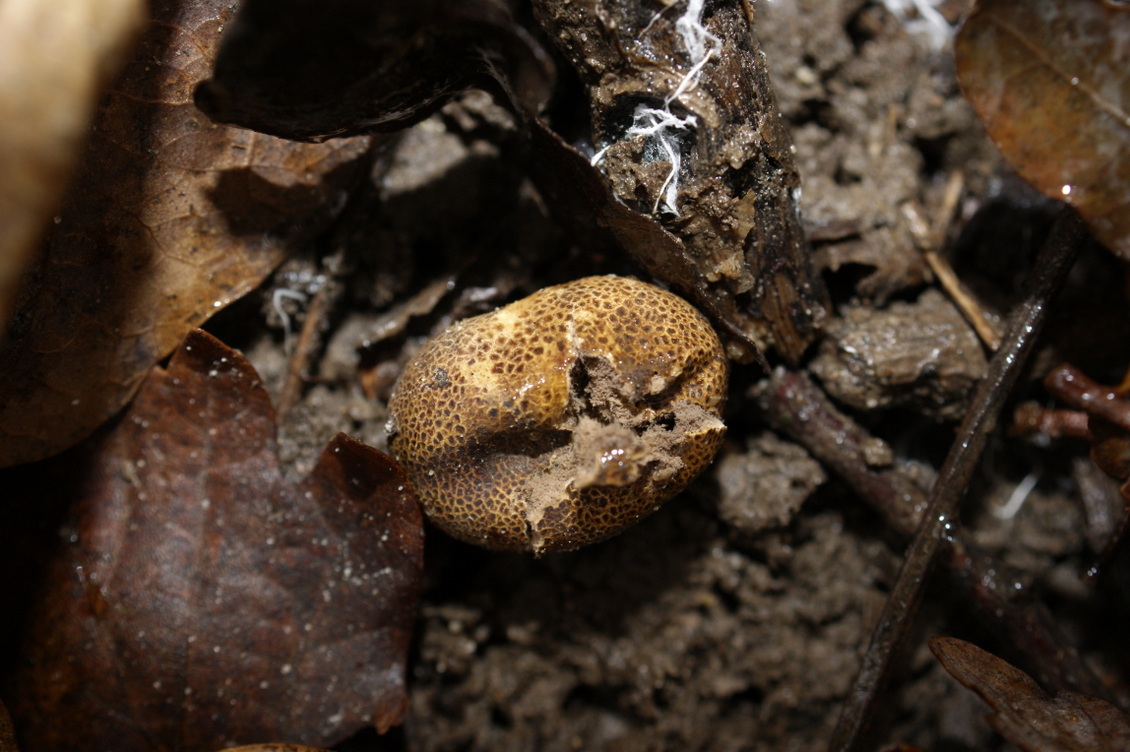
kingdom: Fungi
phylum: Basidiomycota
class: Agaricomycetes
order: Boletales
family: Sclerodermataceae
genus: Scleroderma
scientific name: Scleroderma areolatum
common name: plettet bruskbold
